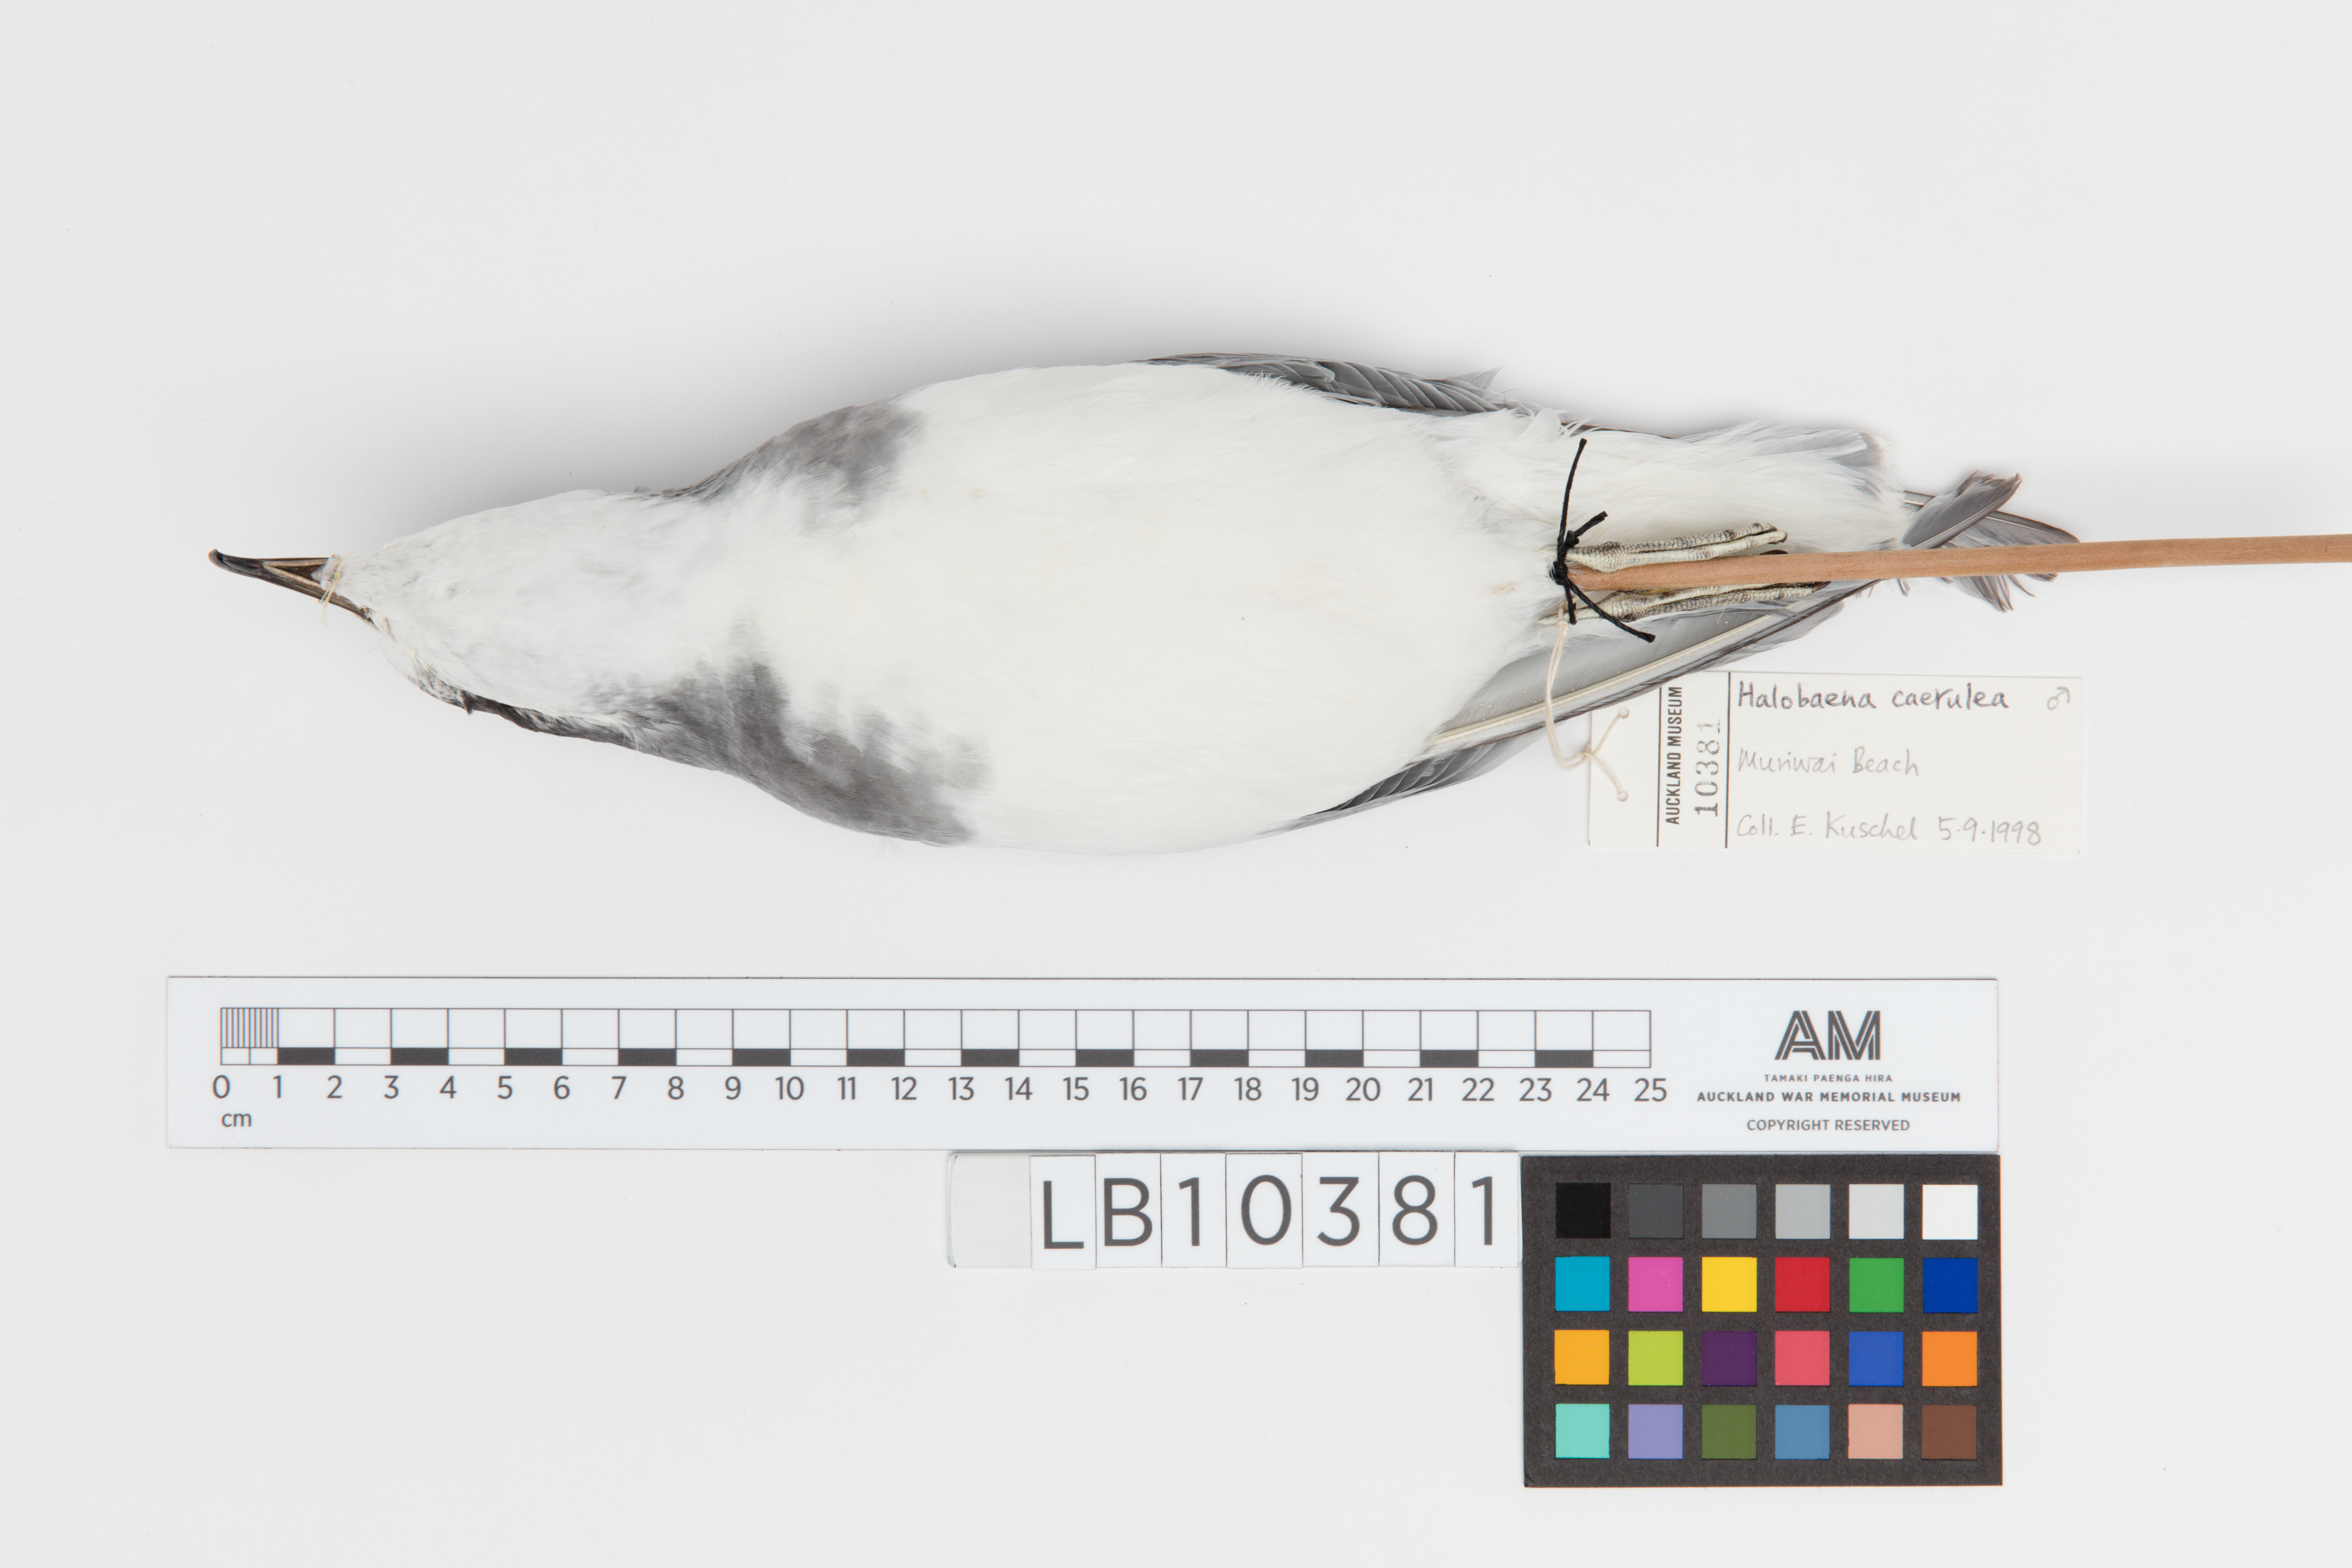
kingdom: Animalia
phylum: Chordata
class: Aves
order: Procellariiformes
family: Procellariidae
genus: Halobaena
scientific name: Halobaena caerulea
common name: Blue petrel
